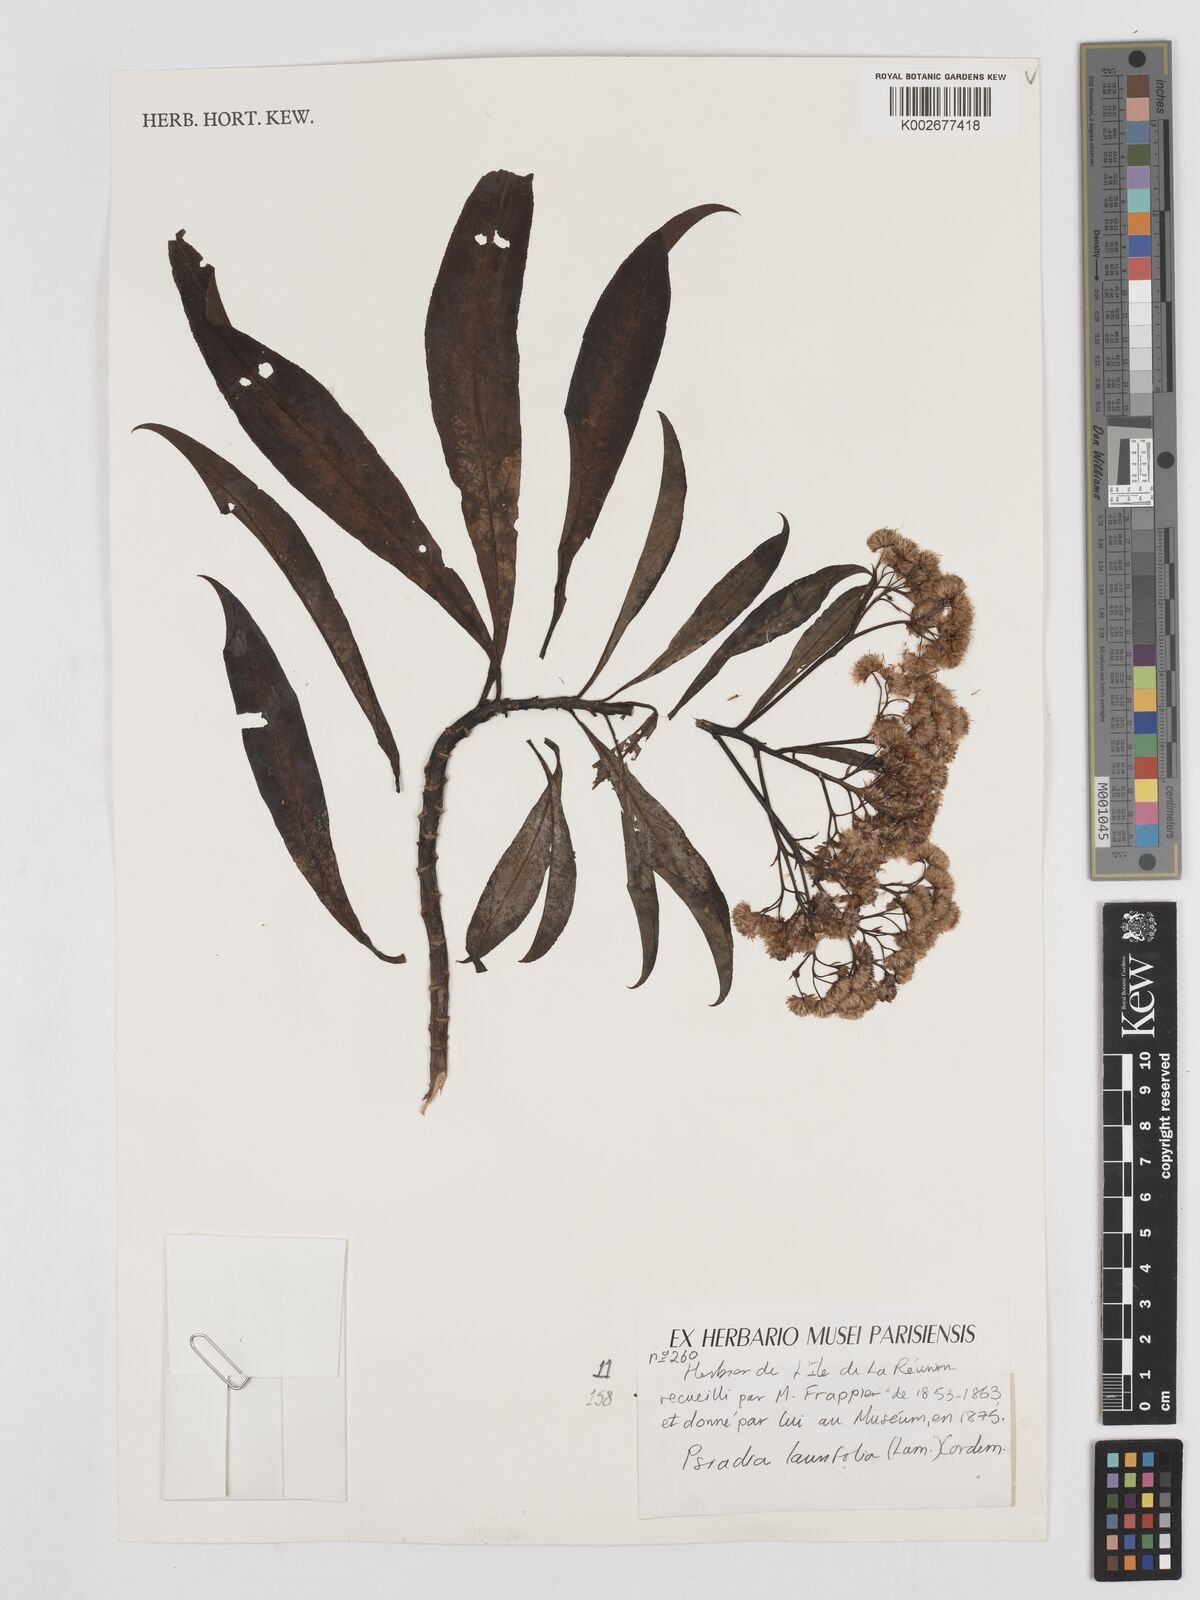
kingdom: Plantae
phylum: Tracheophyta
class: Magnoliopsida
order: Asterales
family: Asteraceae
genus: Psiadia
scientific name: Psiadia laurifolia
